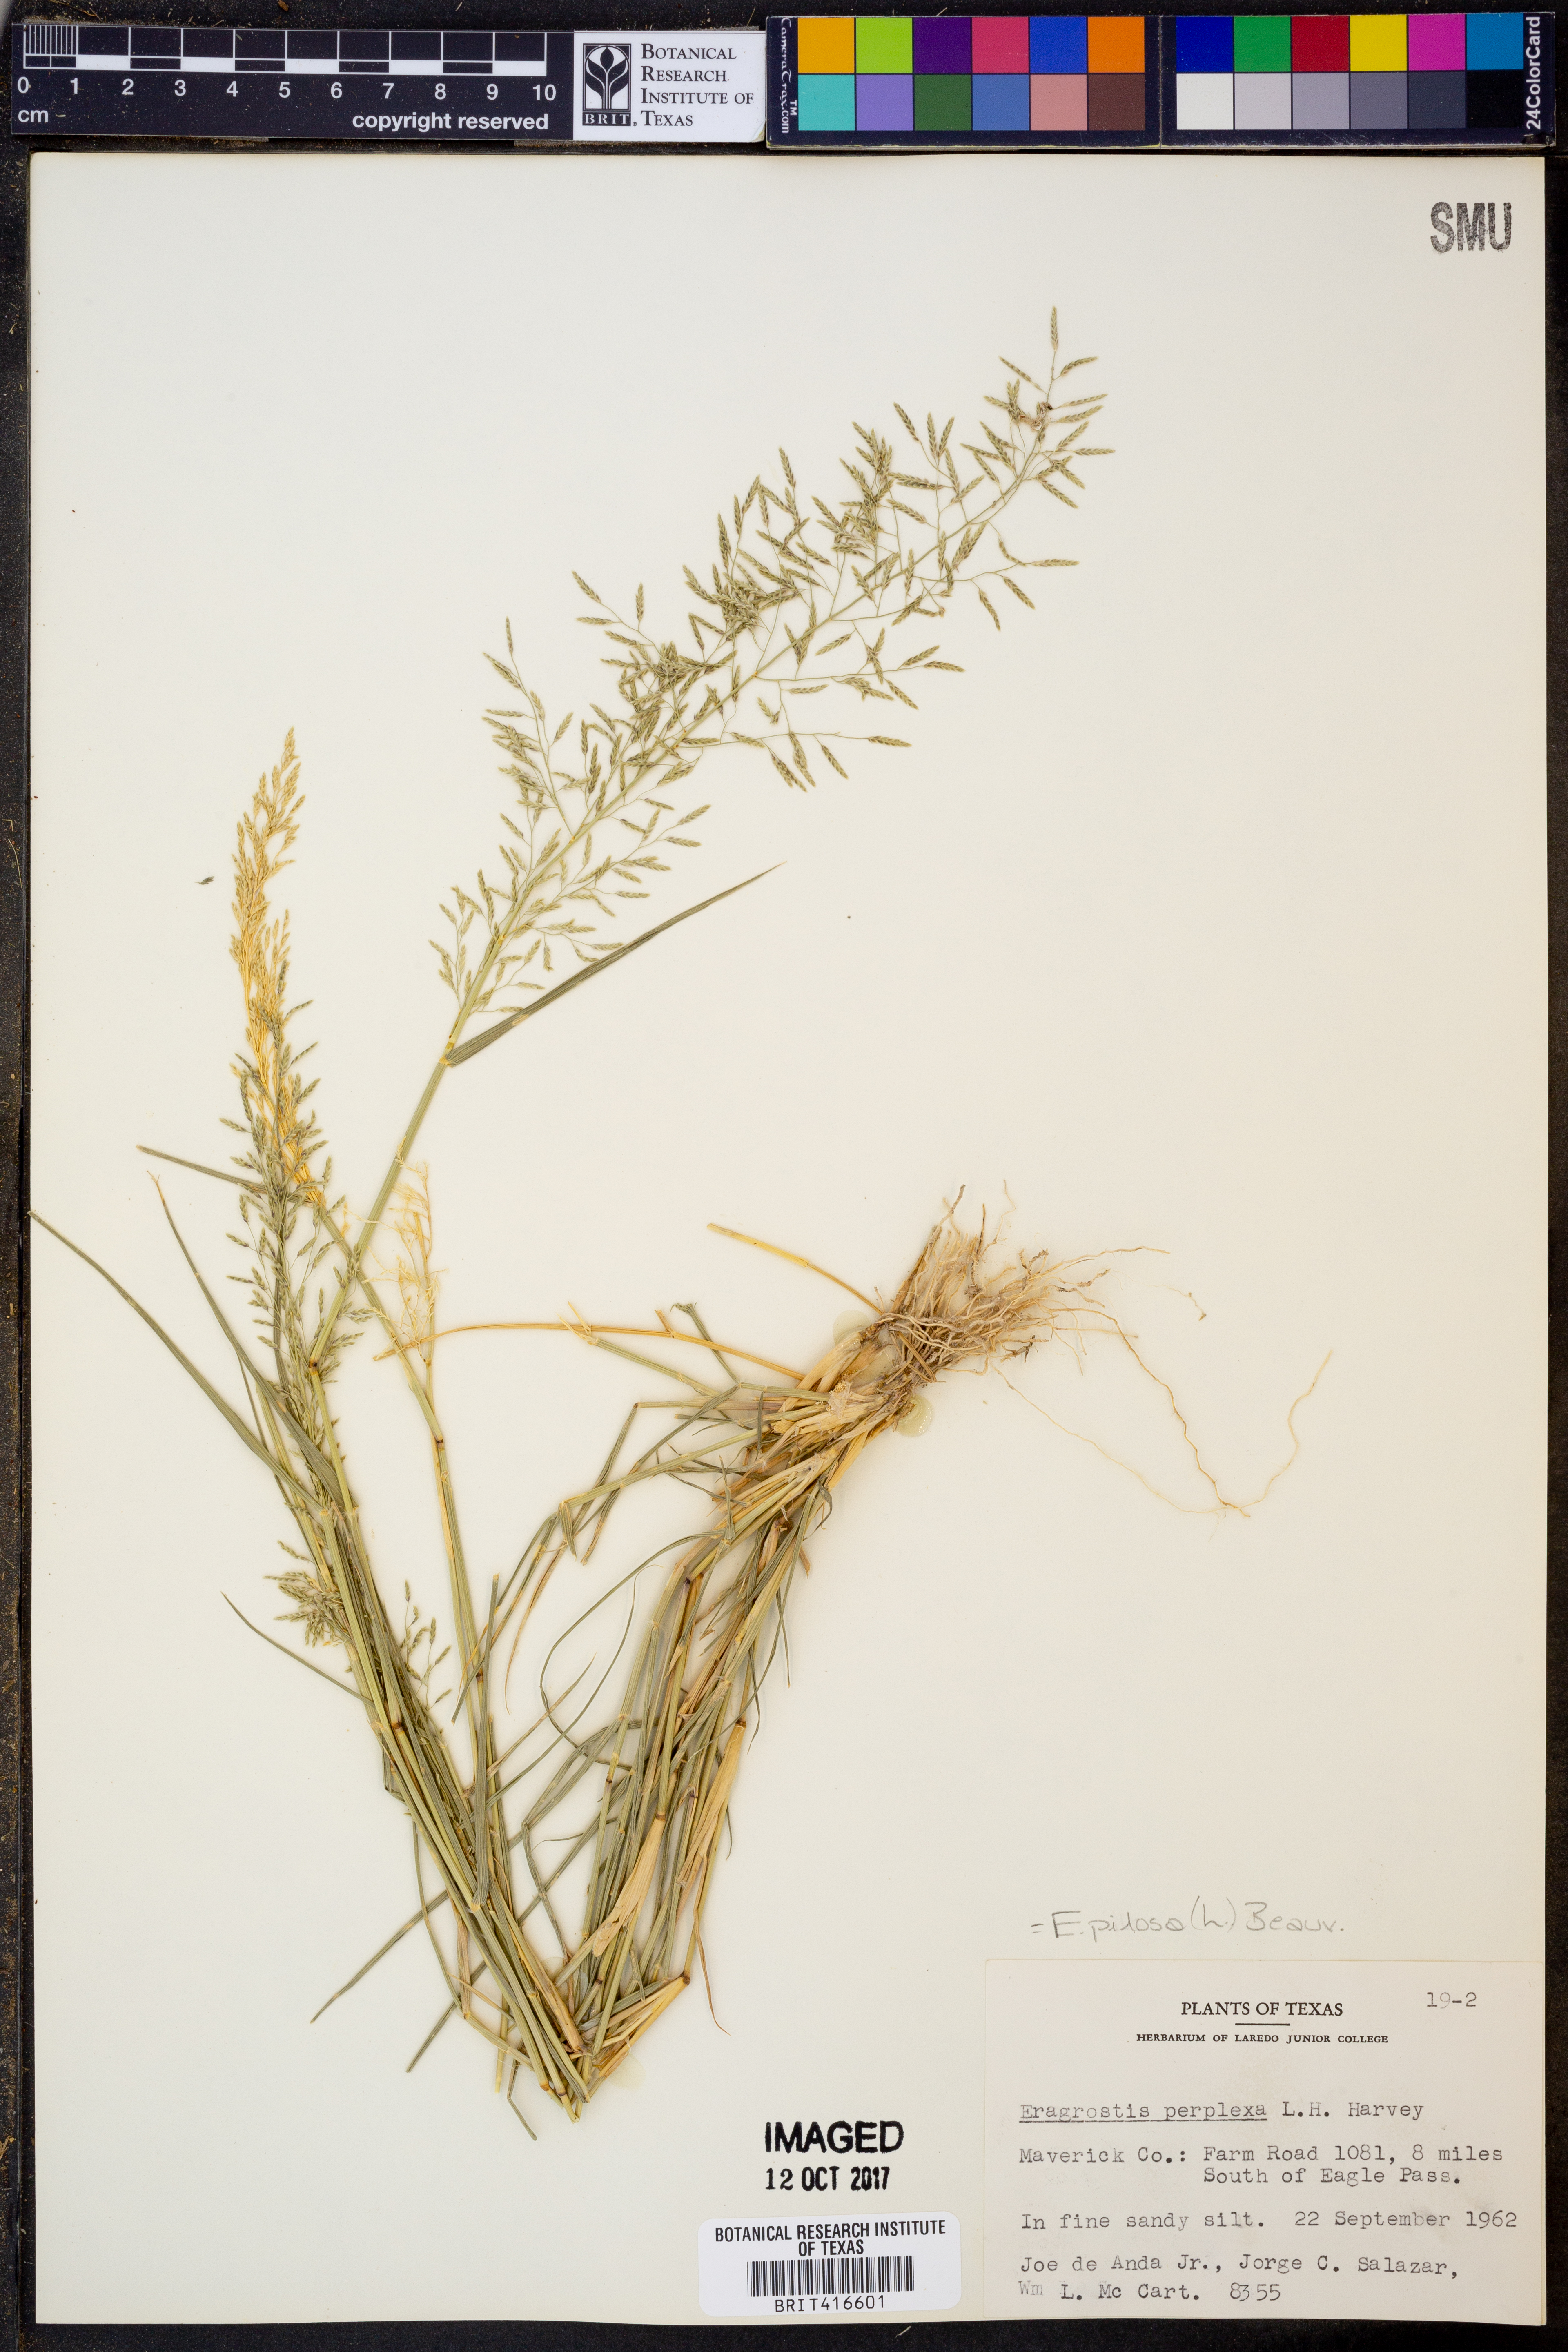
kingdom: Plantae
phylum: Tracheophyta
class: Liliopsida
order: Poales
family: Poaceae
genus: Eragrostis
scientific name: Eragrostis perplexa
